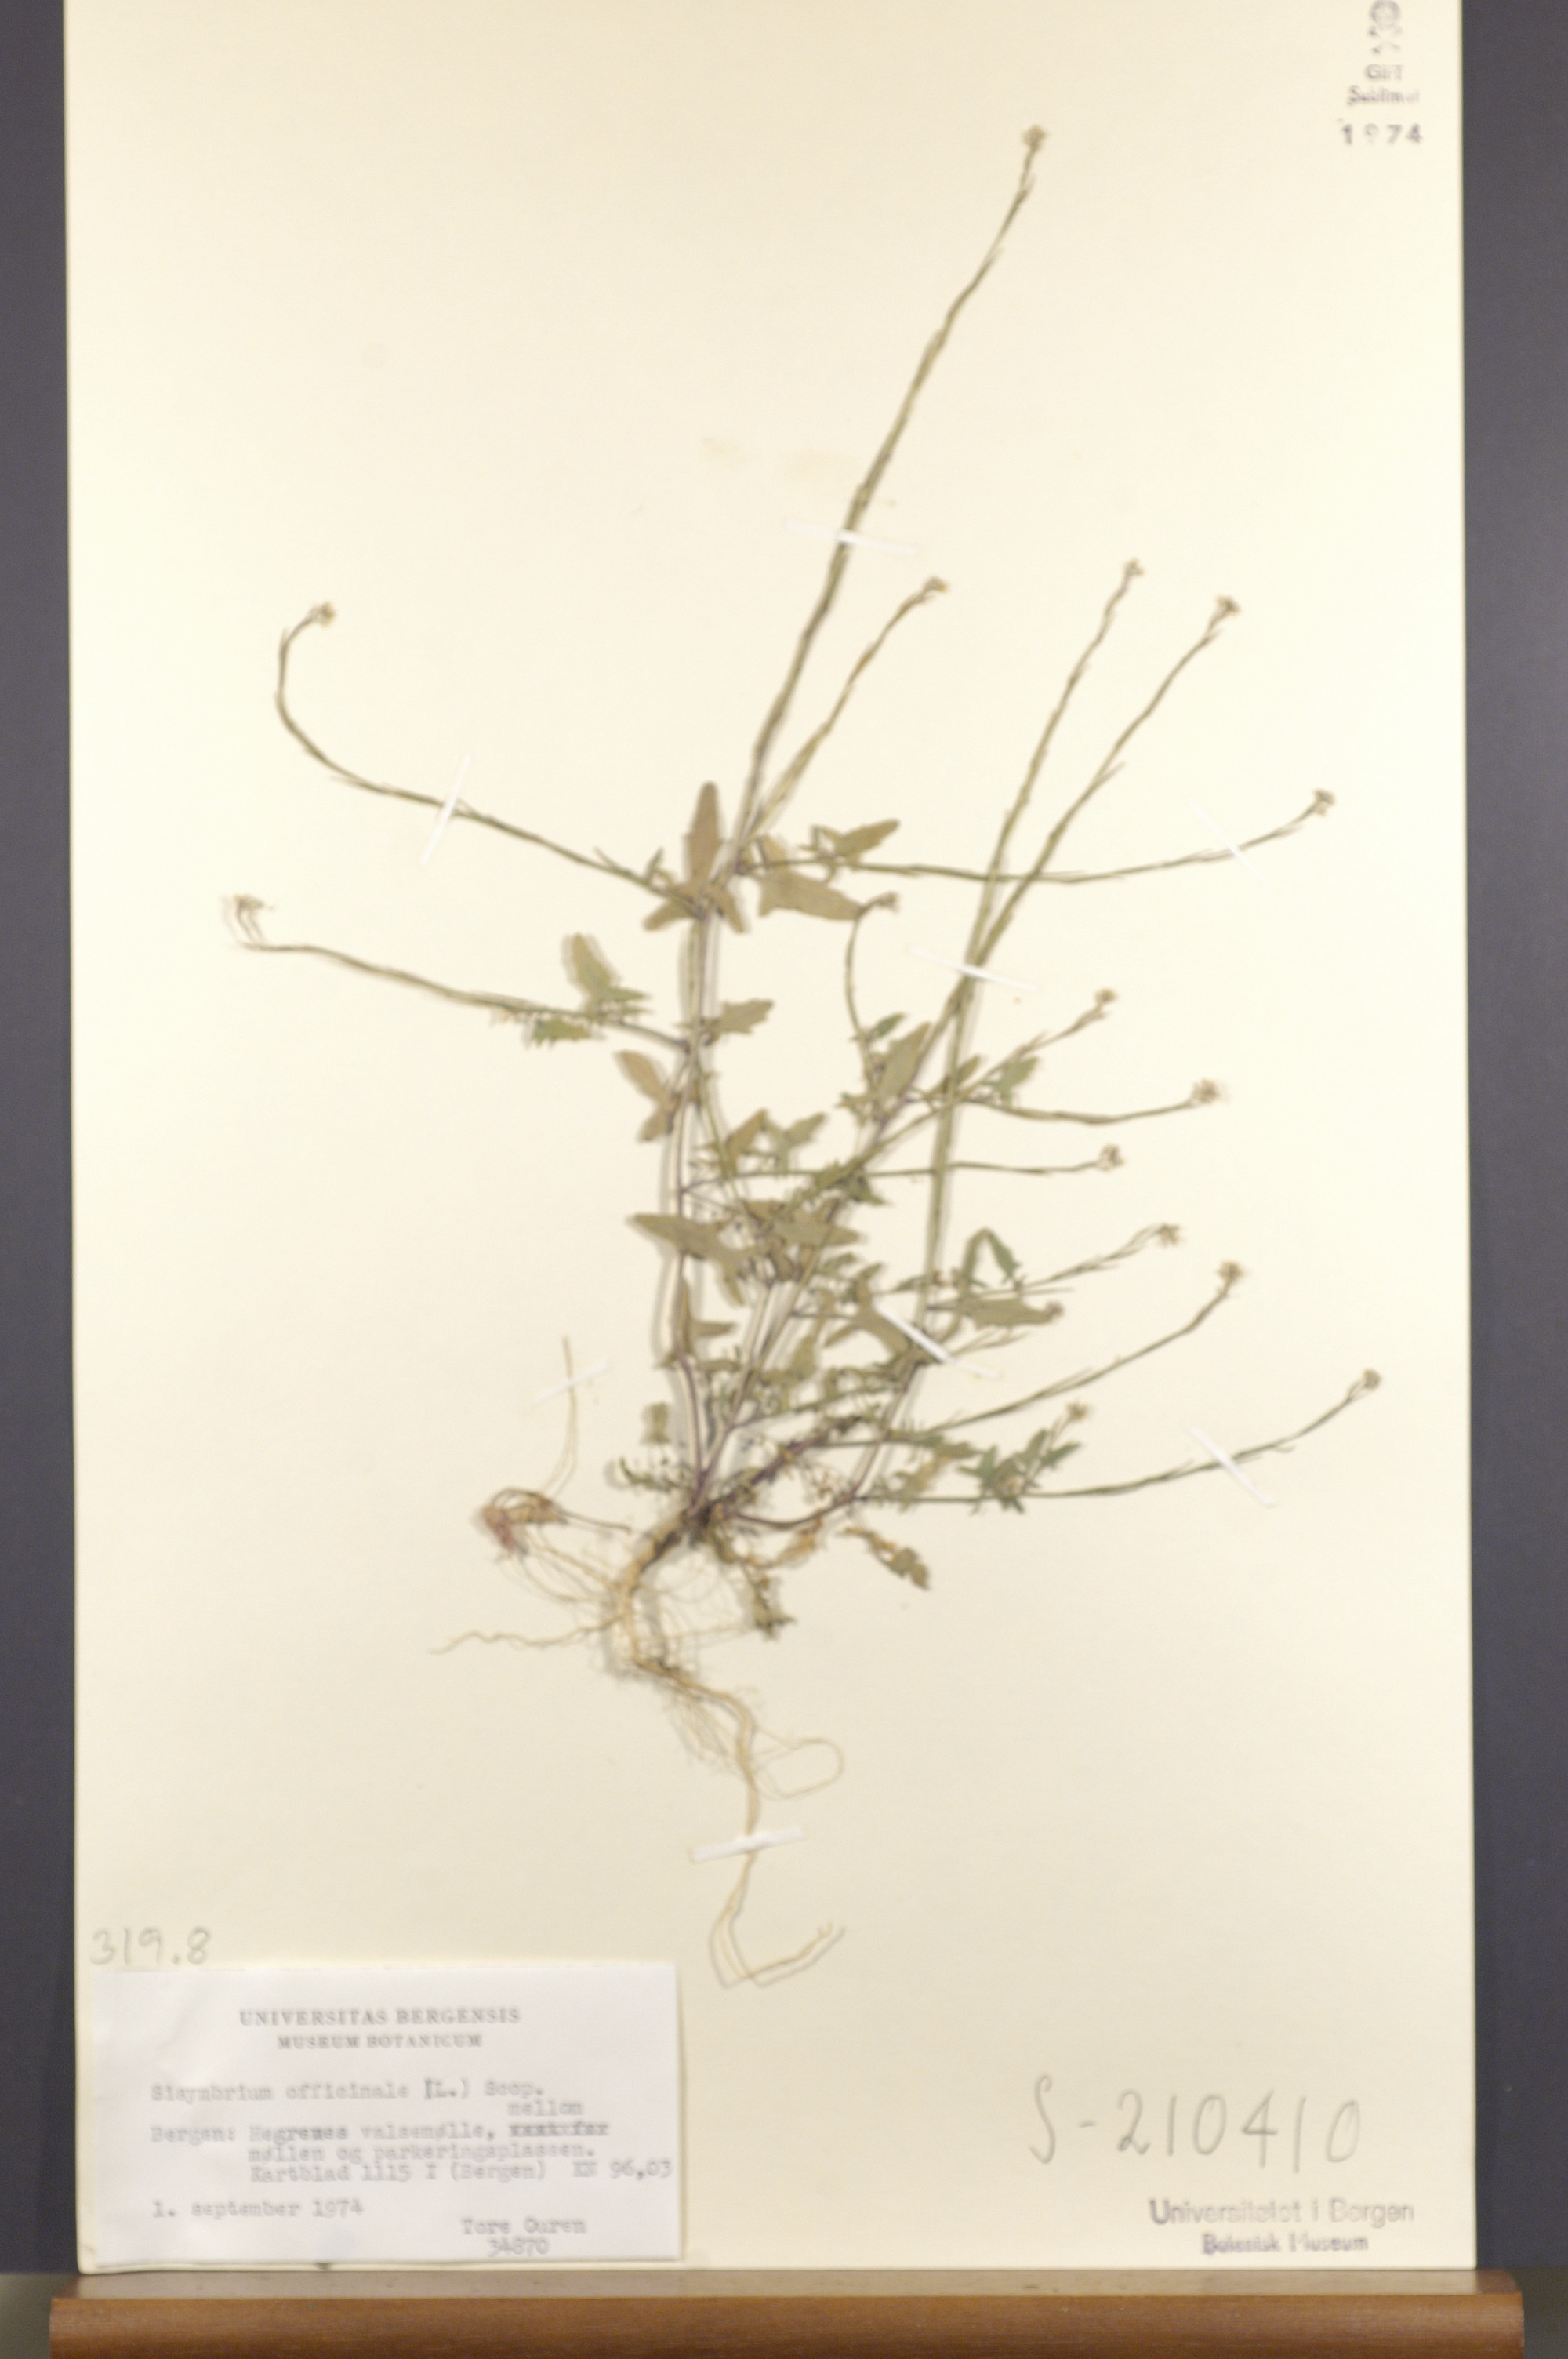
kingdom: Plantae
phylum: Tracheophyta
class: Magnoliopsida
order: Brassicales
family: Brassicaceae
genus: Sisymbrium
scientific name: Sisymbrium officinale
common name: Hedge mustard
